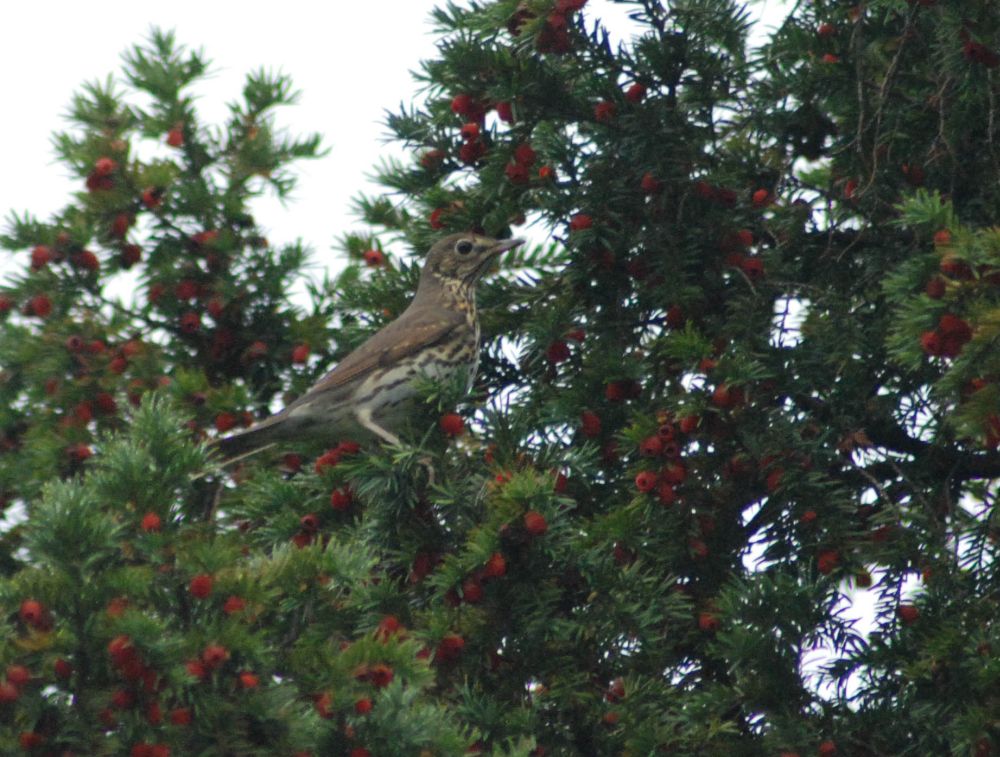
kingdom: Animalia
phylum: Chordata
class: Aves
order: Passeriformes
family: Turdidae
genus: Turdus
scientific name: Turdus philomelos
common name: Song thrush
